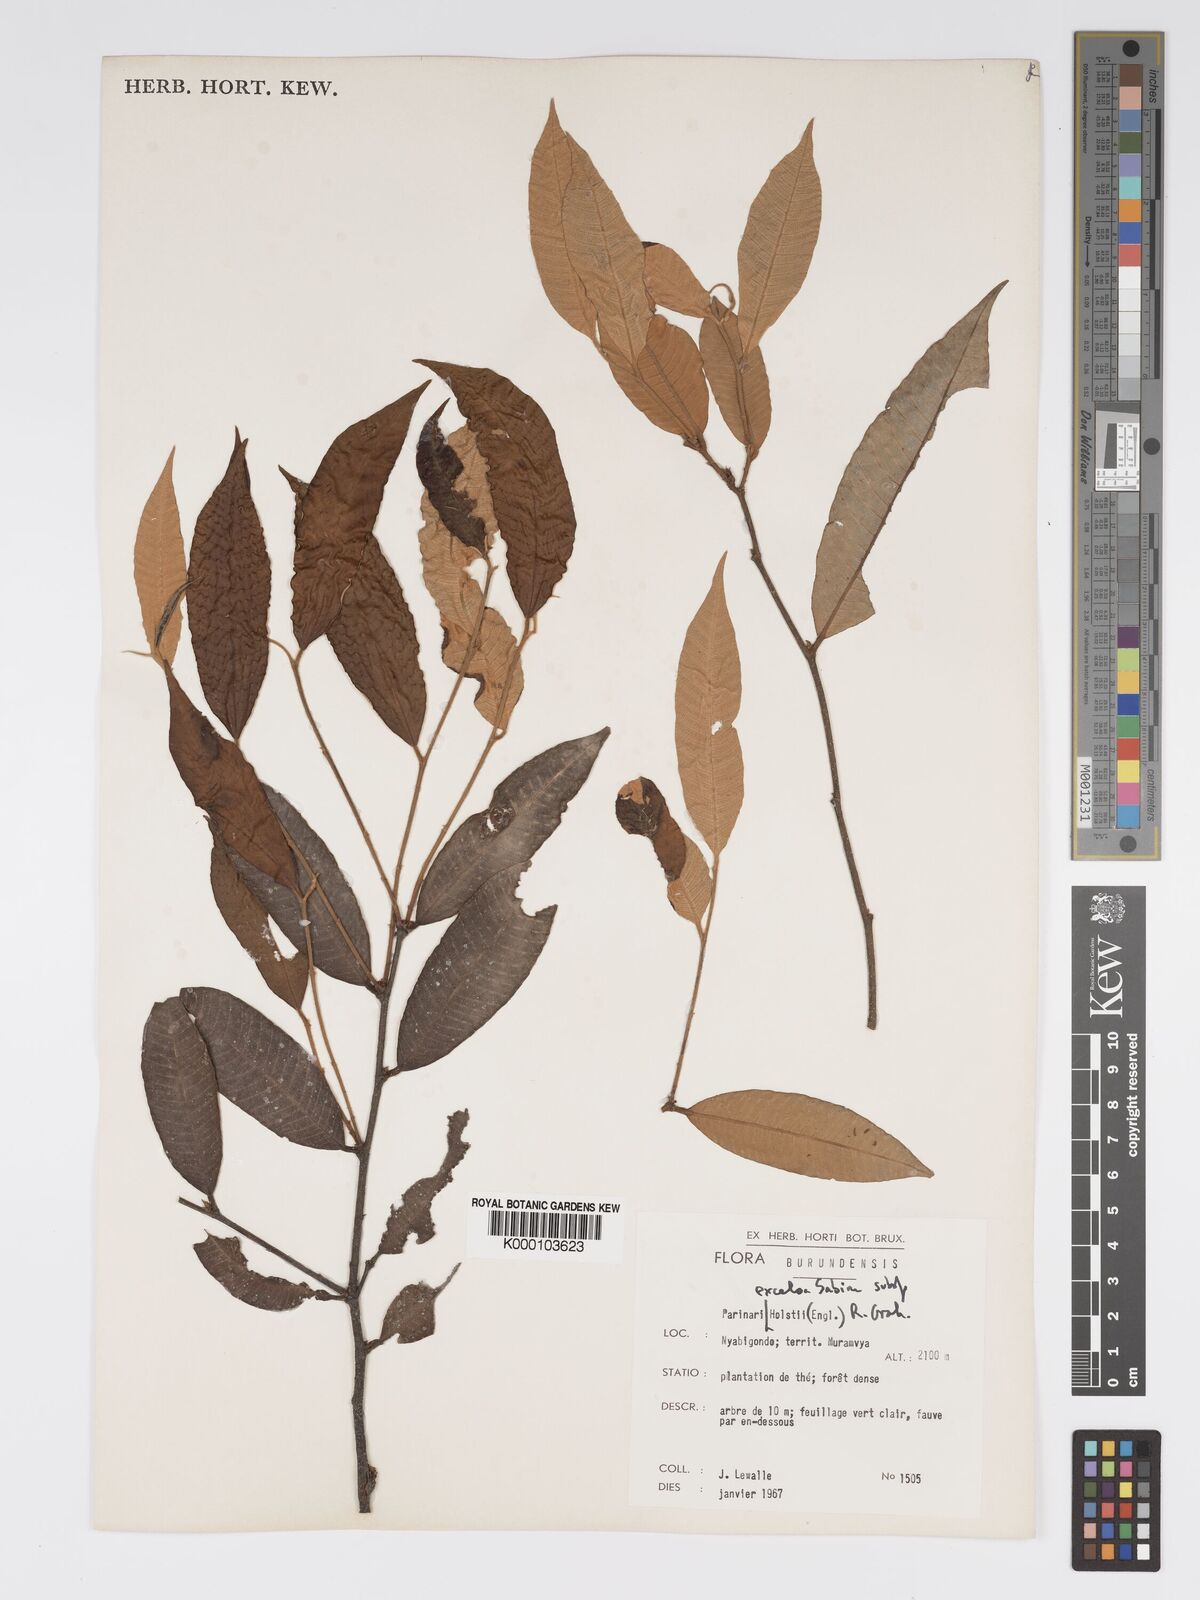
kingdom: Plantae
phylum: Tracheophyta
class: Magnoliopsida
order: Malpighiales
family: Chrysobalanaceae
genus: Parinari
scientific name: Parinari excelsa
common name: Guinea-plum
